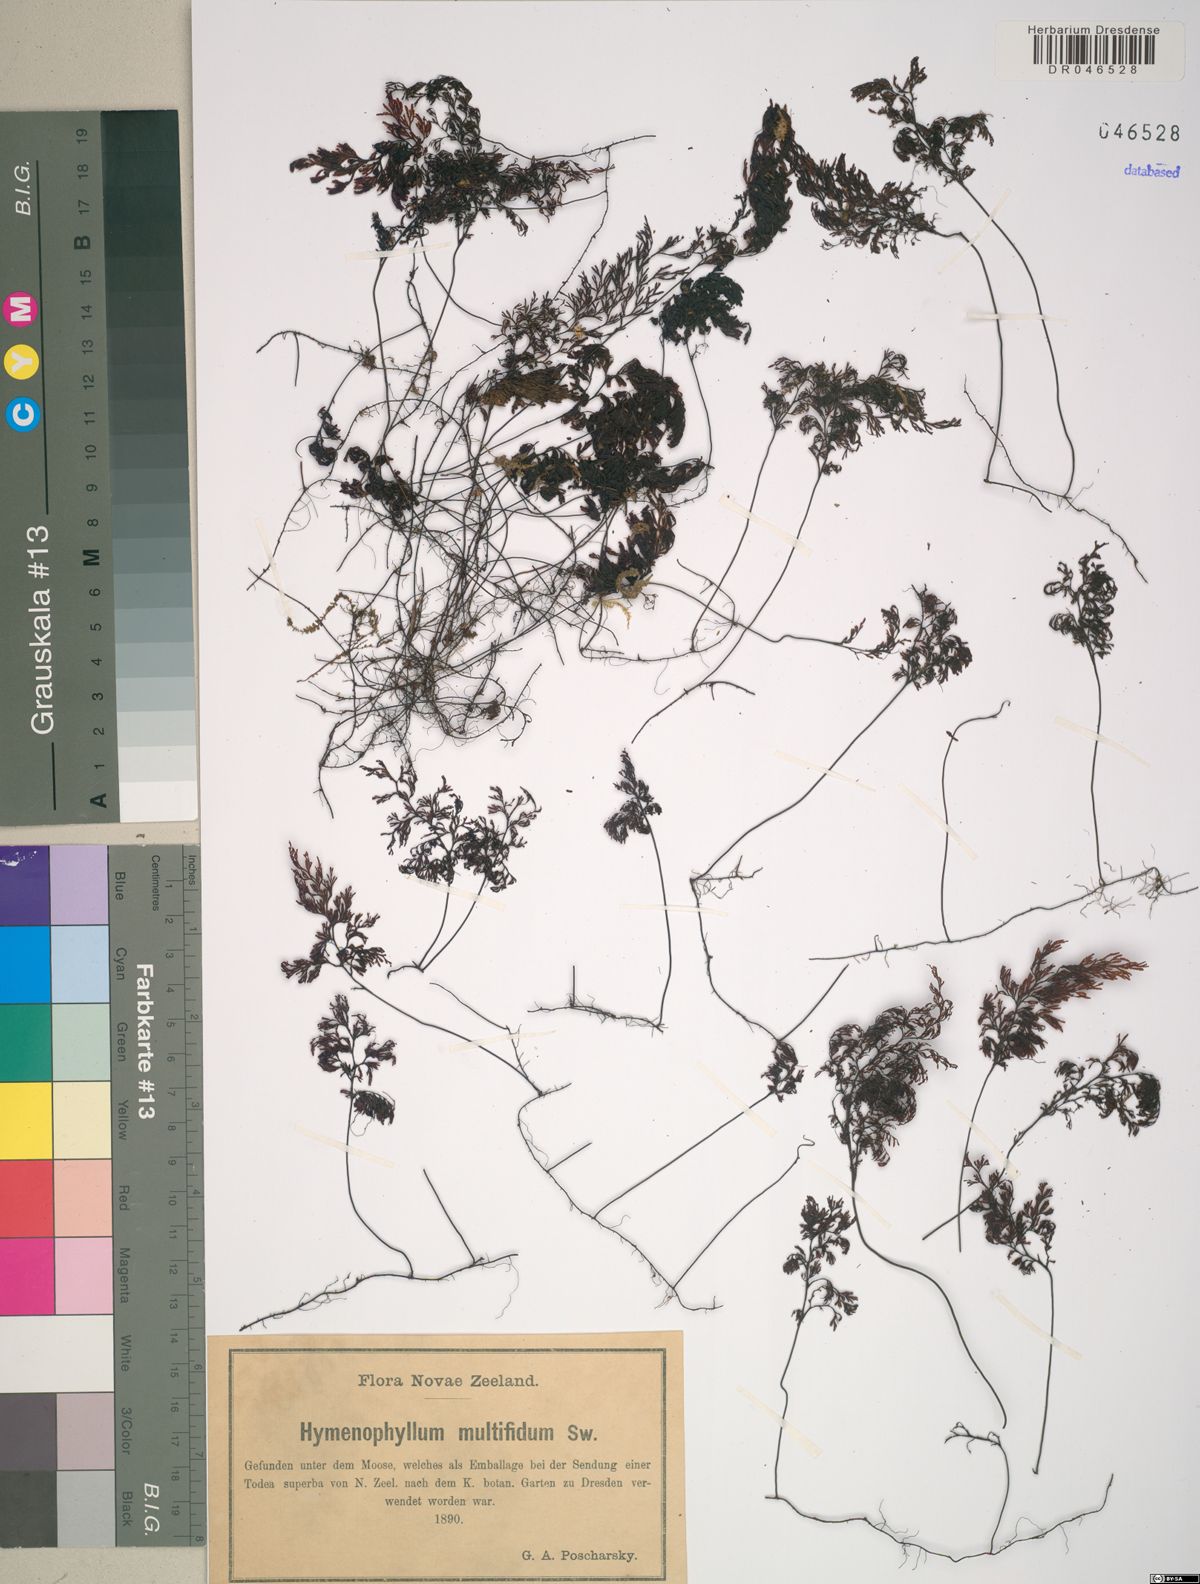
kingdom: Plantae
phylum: Tracheophyta
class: Polypodiopsida
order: Hymenophyllales
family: Hymenophyllaceae
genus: Hymenophyllum
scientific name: Hymenophyllum multifidum
